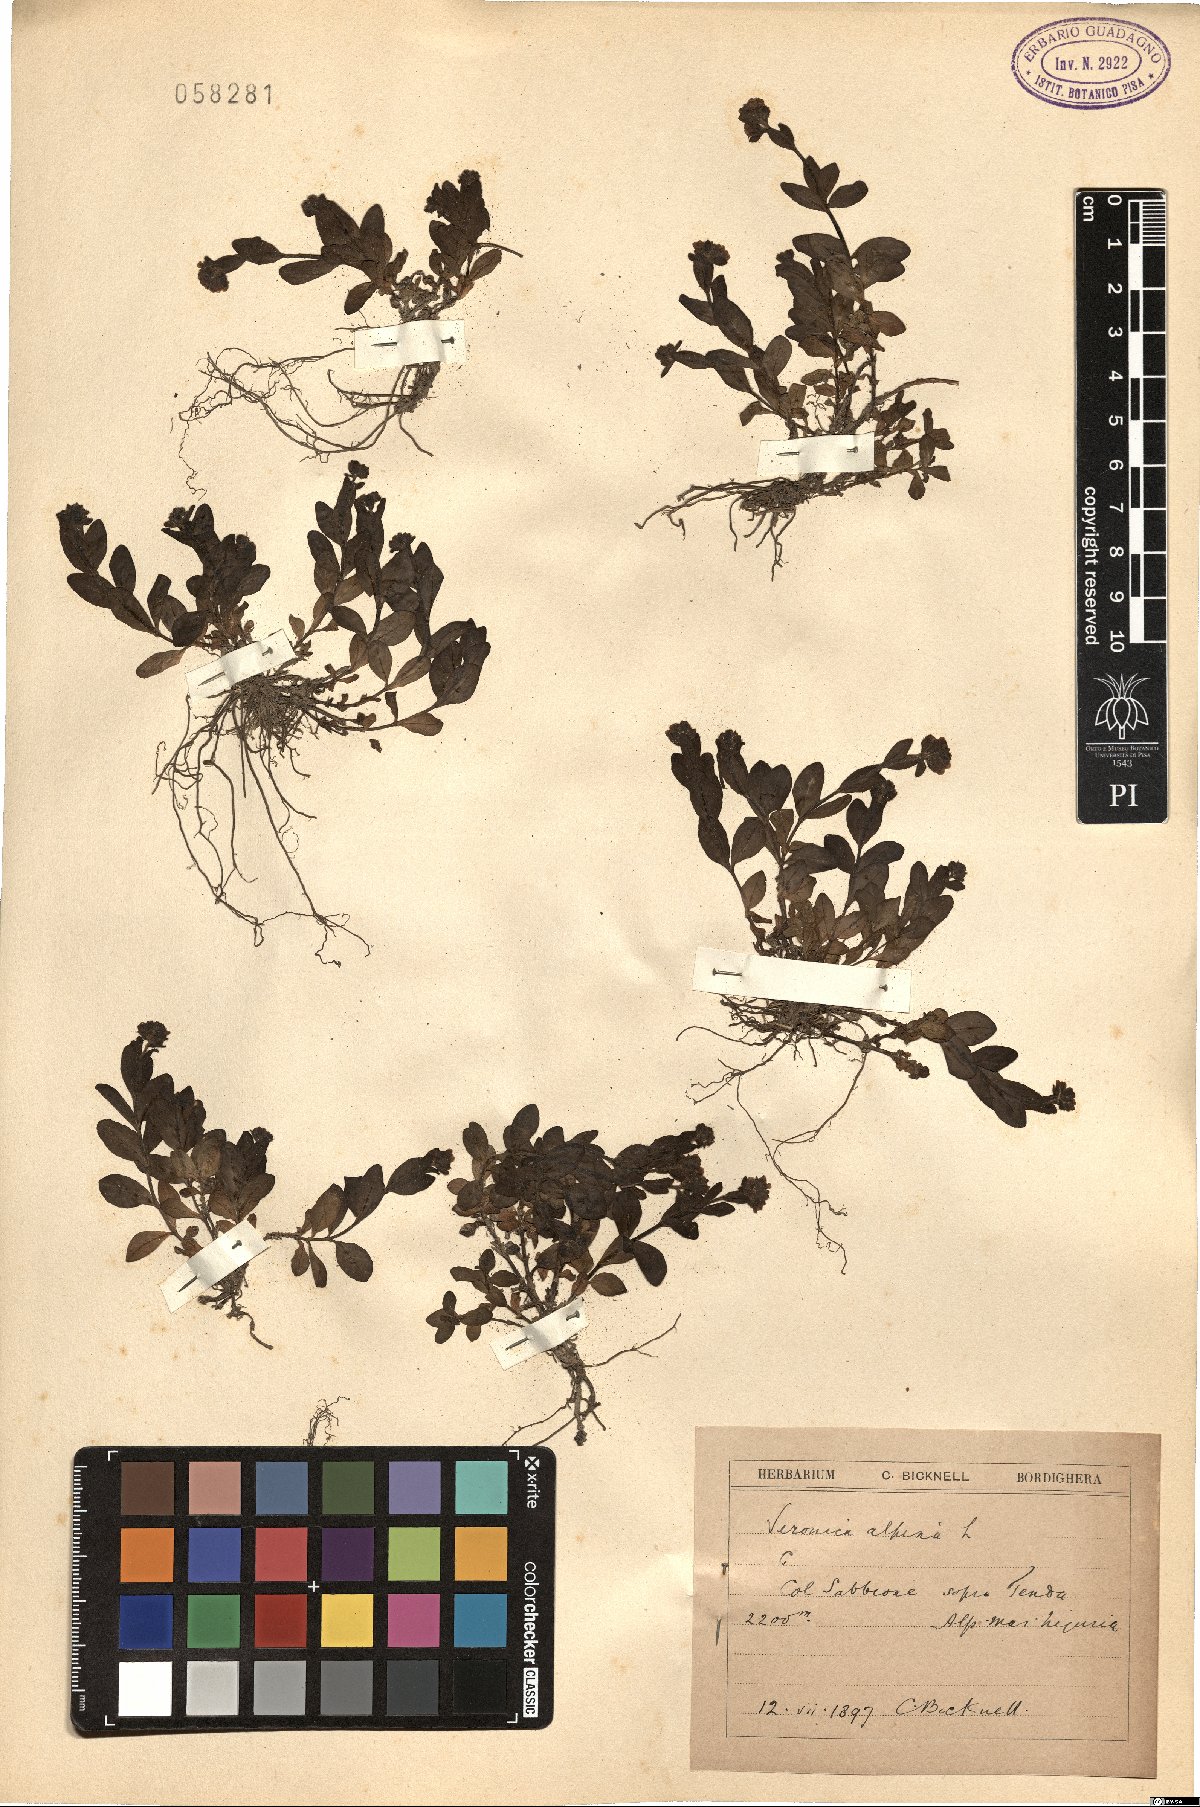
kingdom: Plantae
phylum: Tracheophyta
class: Magnoliopsida
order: Lamiales
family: Plantaginaceae
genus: Veronica
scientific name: Veronica alpina
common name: Alpine speedwell
